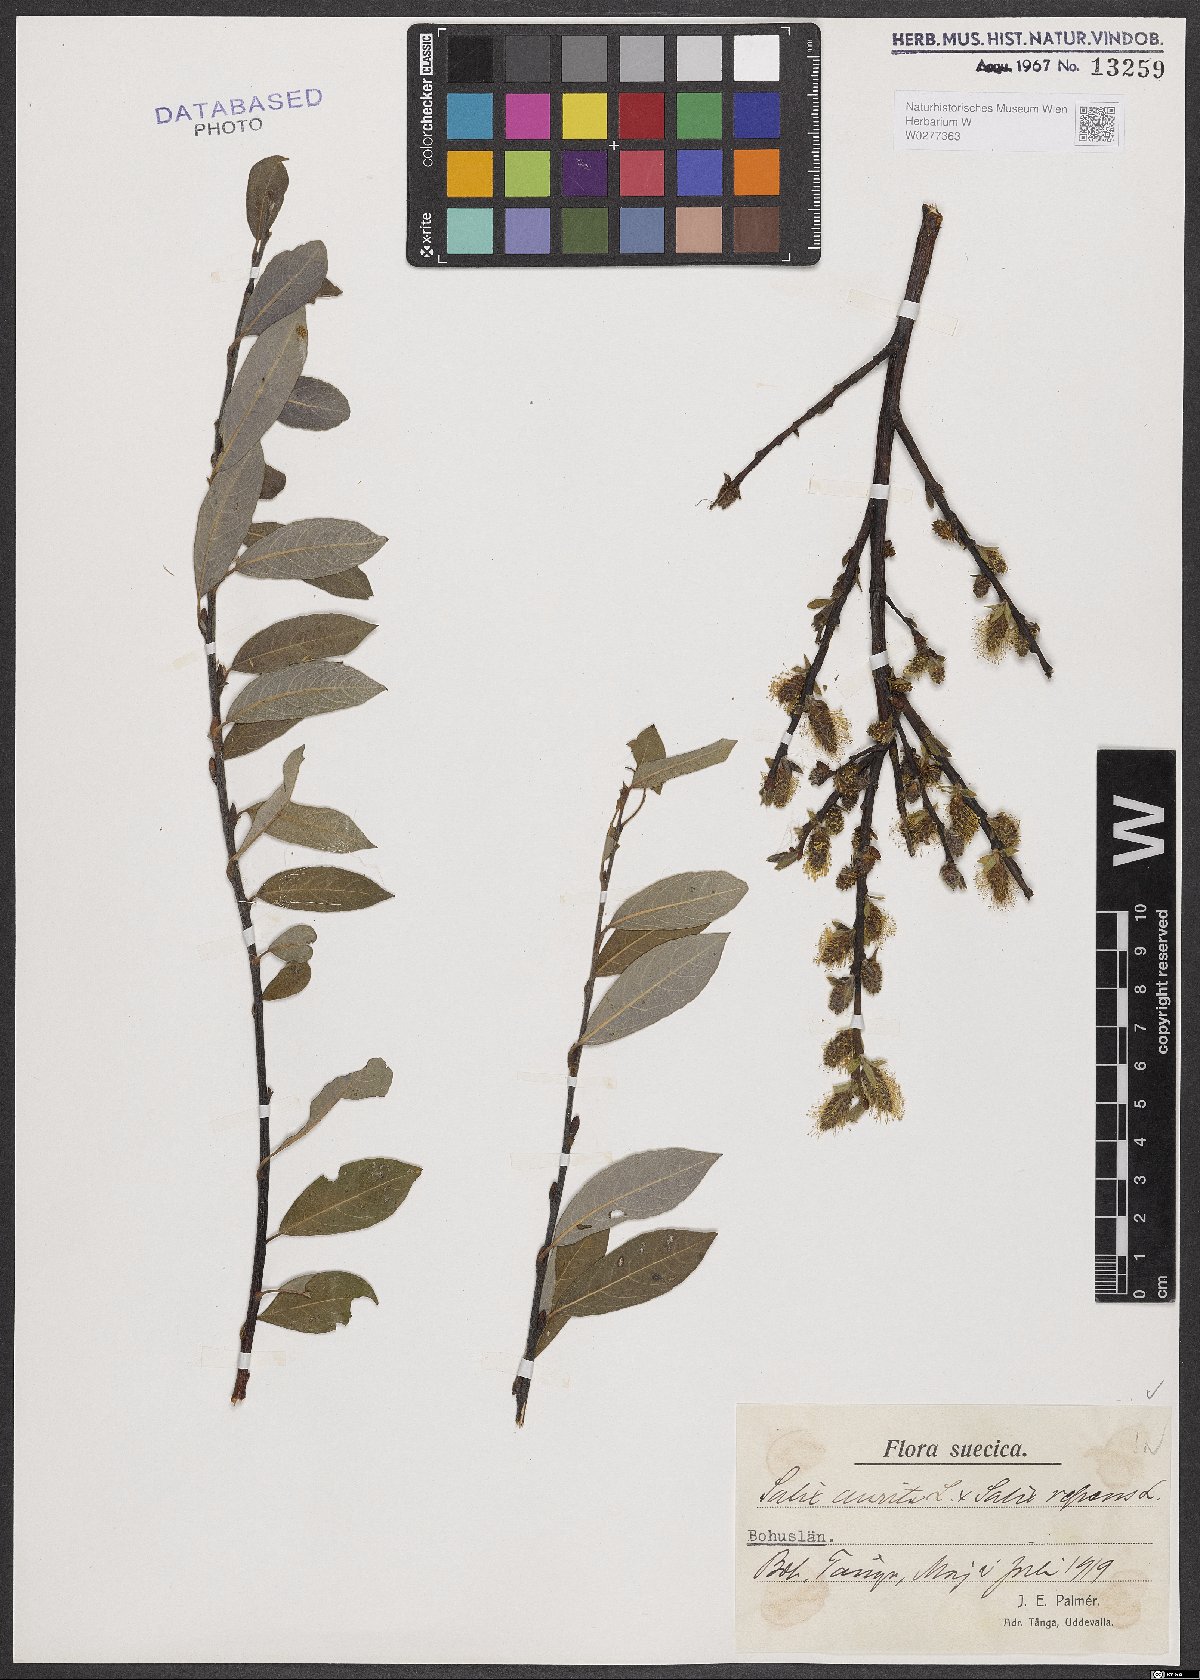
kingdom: Plantae
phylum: Tracheophyta
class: Magnoliopsida
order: Malpighiales
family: Salicaceae
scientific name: Salicaceae
